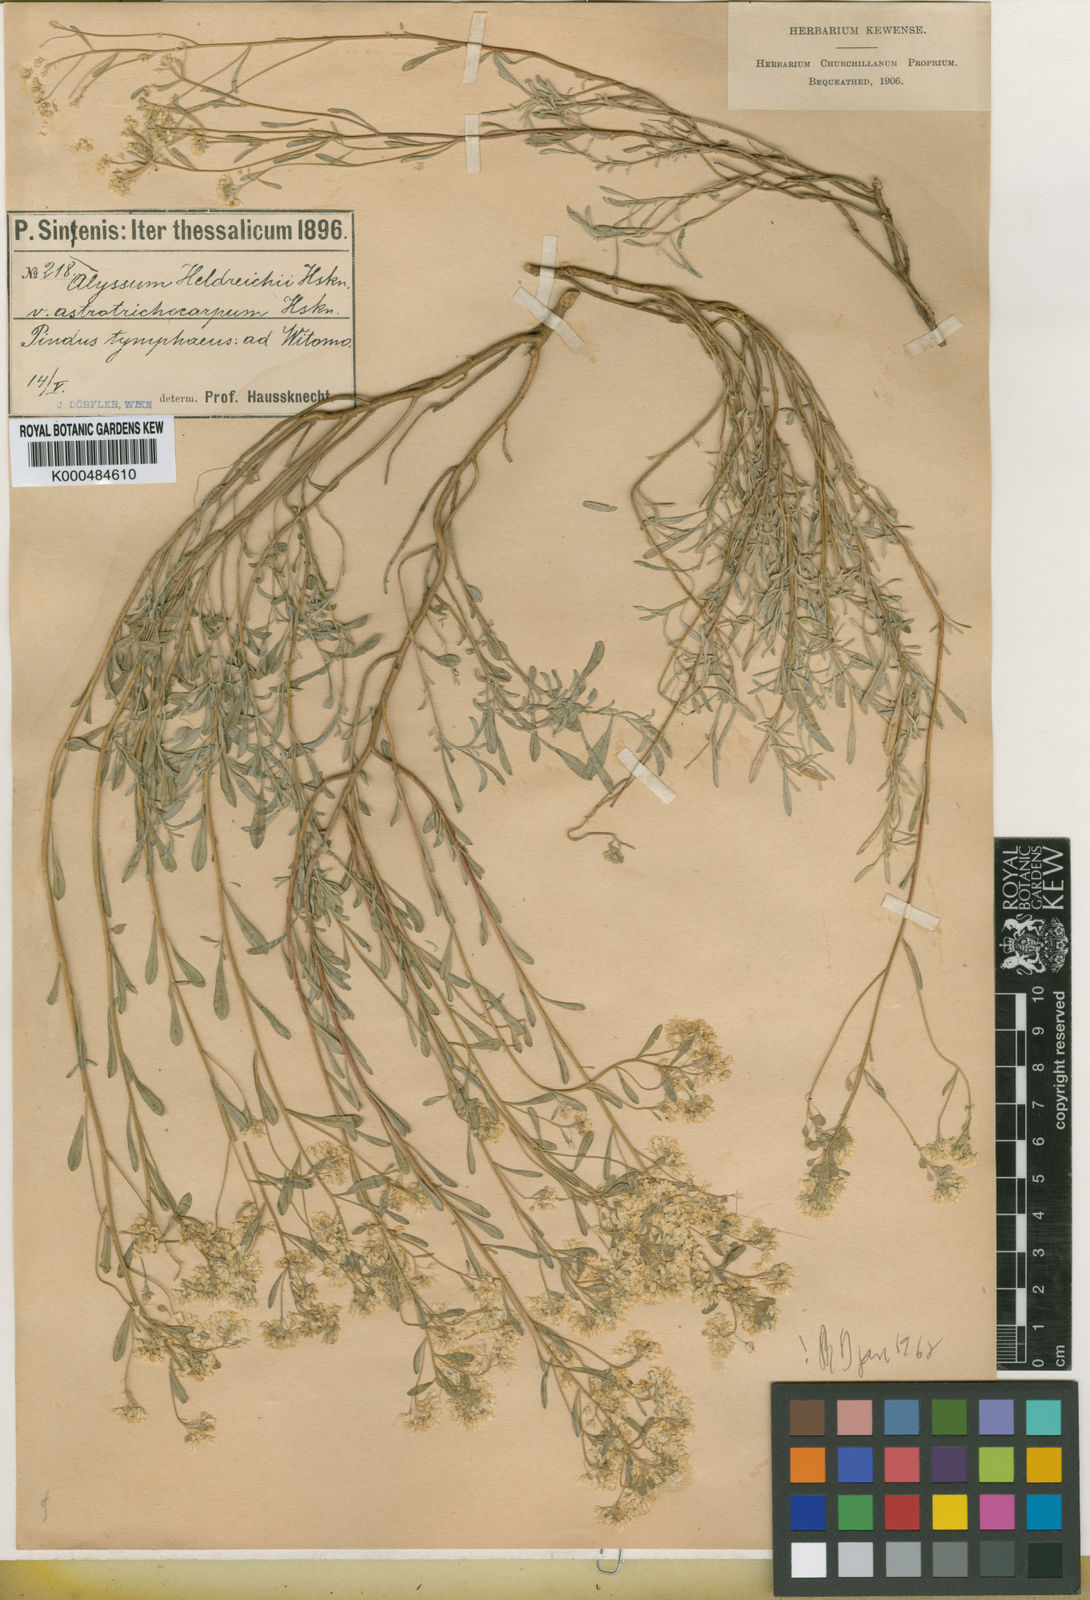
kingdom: Plantae
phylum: Tracheophyta
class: Magnoliopsida
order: Brassicales
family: Brassicaceae
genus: Odontarrhena
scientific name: Odontarrhena heldreichii
